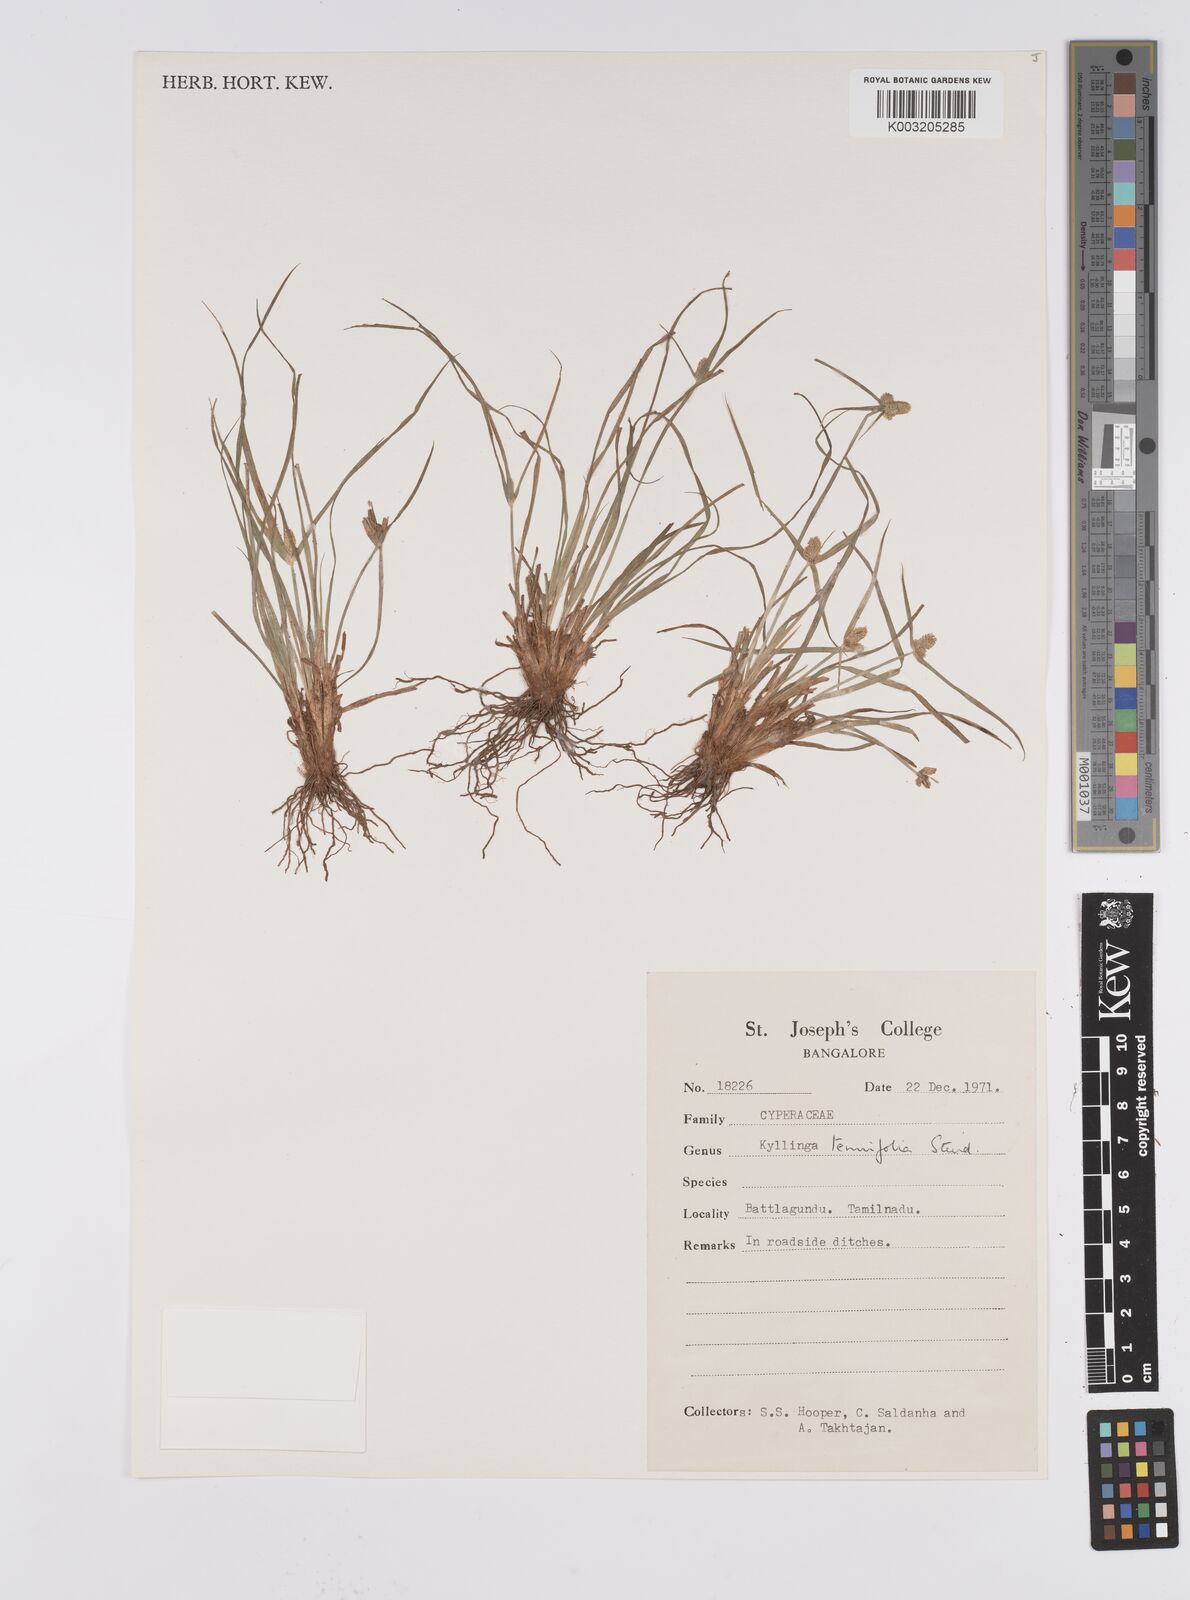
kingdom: Plantae
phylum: Tracheophyta
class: Liliopsida
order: Poales
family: Cyperaceae
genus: Cyperus
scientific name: Cyperus
